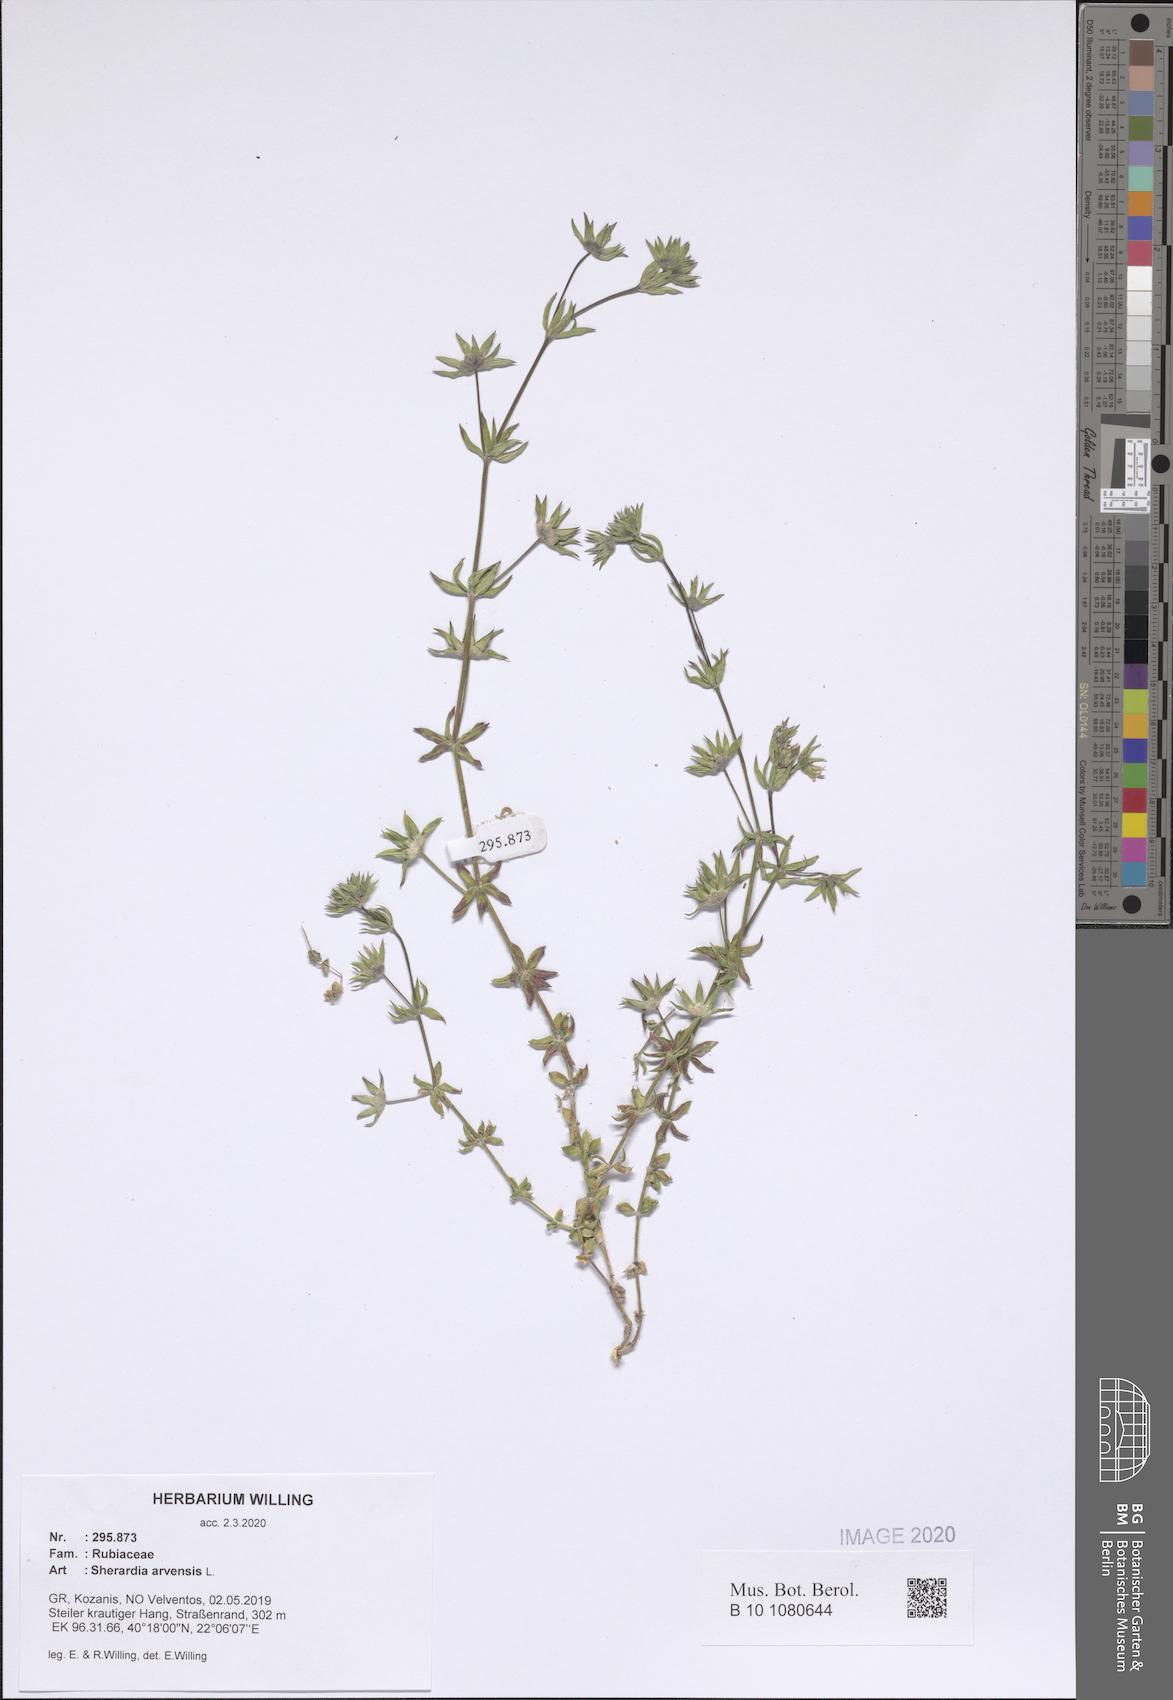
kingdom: Plantae
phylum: Tracheophyta
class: Magnoliopsida
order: Gentianales
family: Rubiaceae
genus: Sherardia
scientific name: Sherardia arvensis
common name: Field madder
